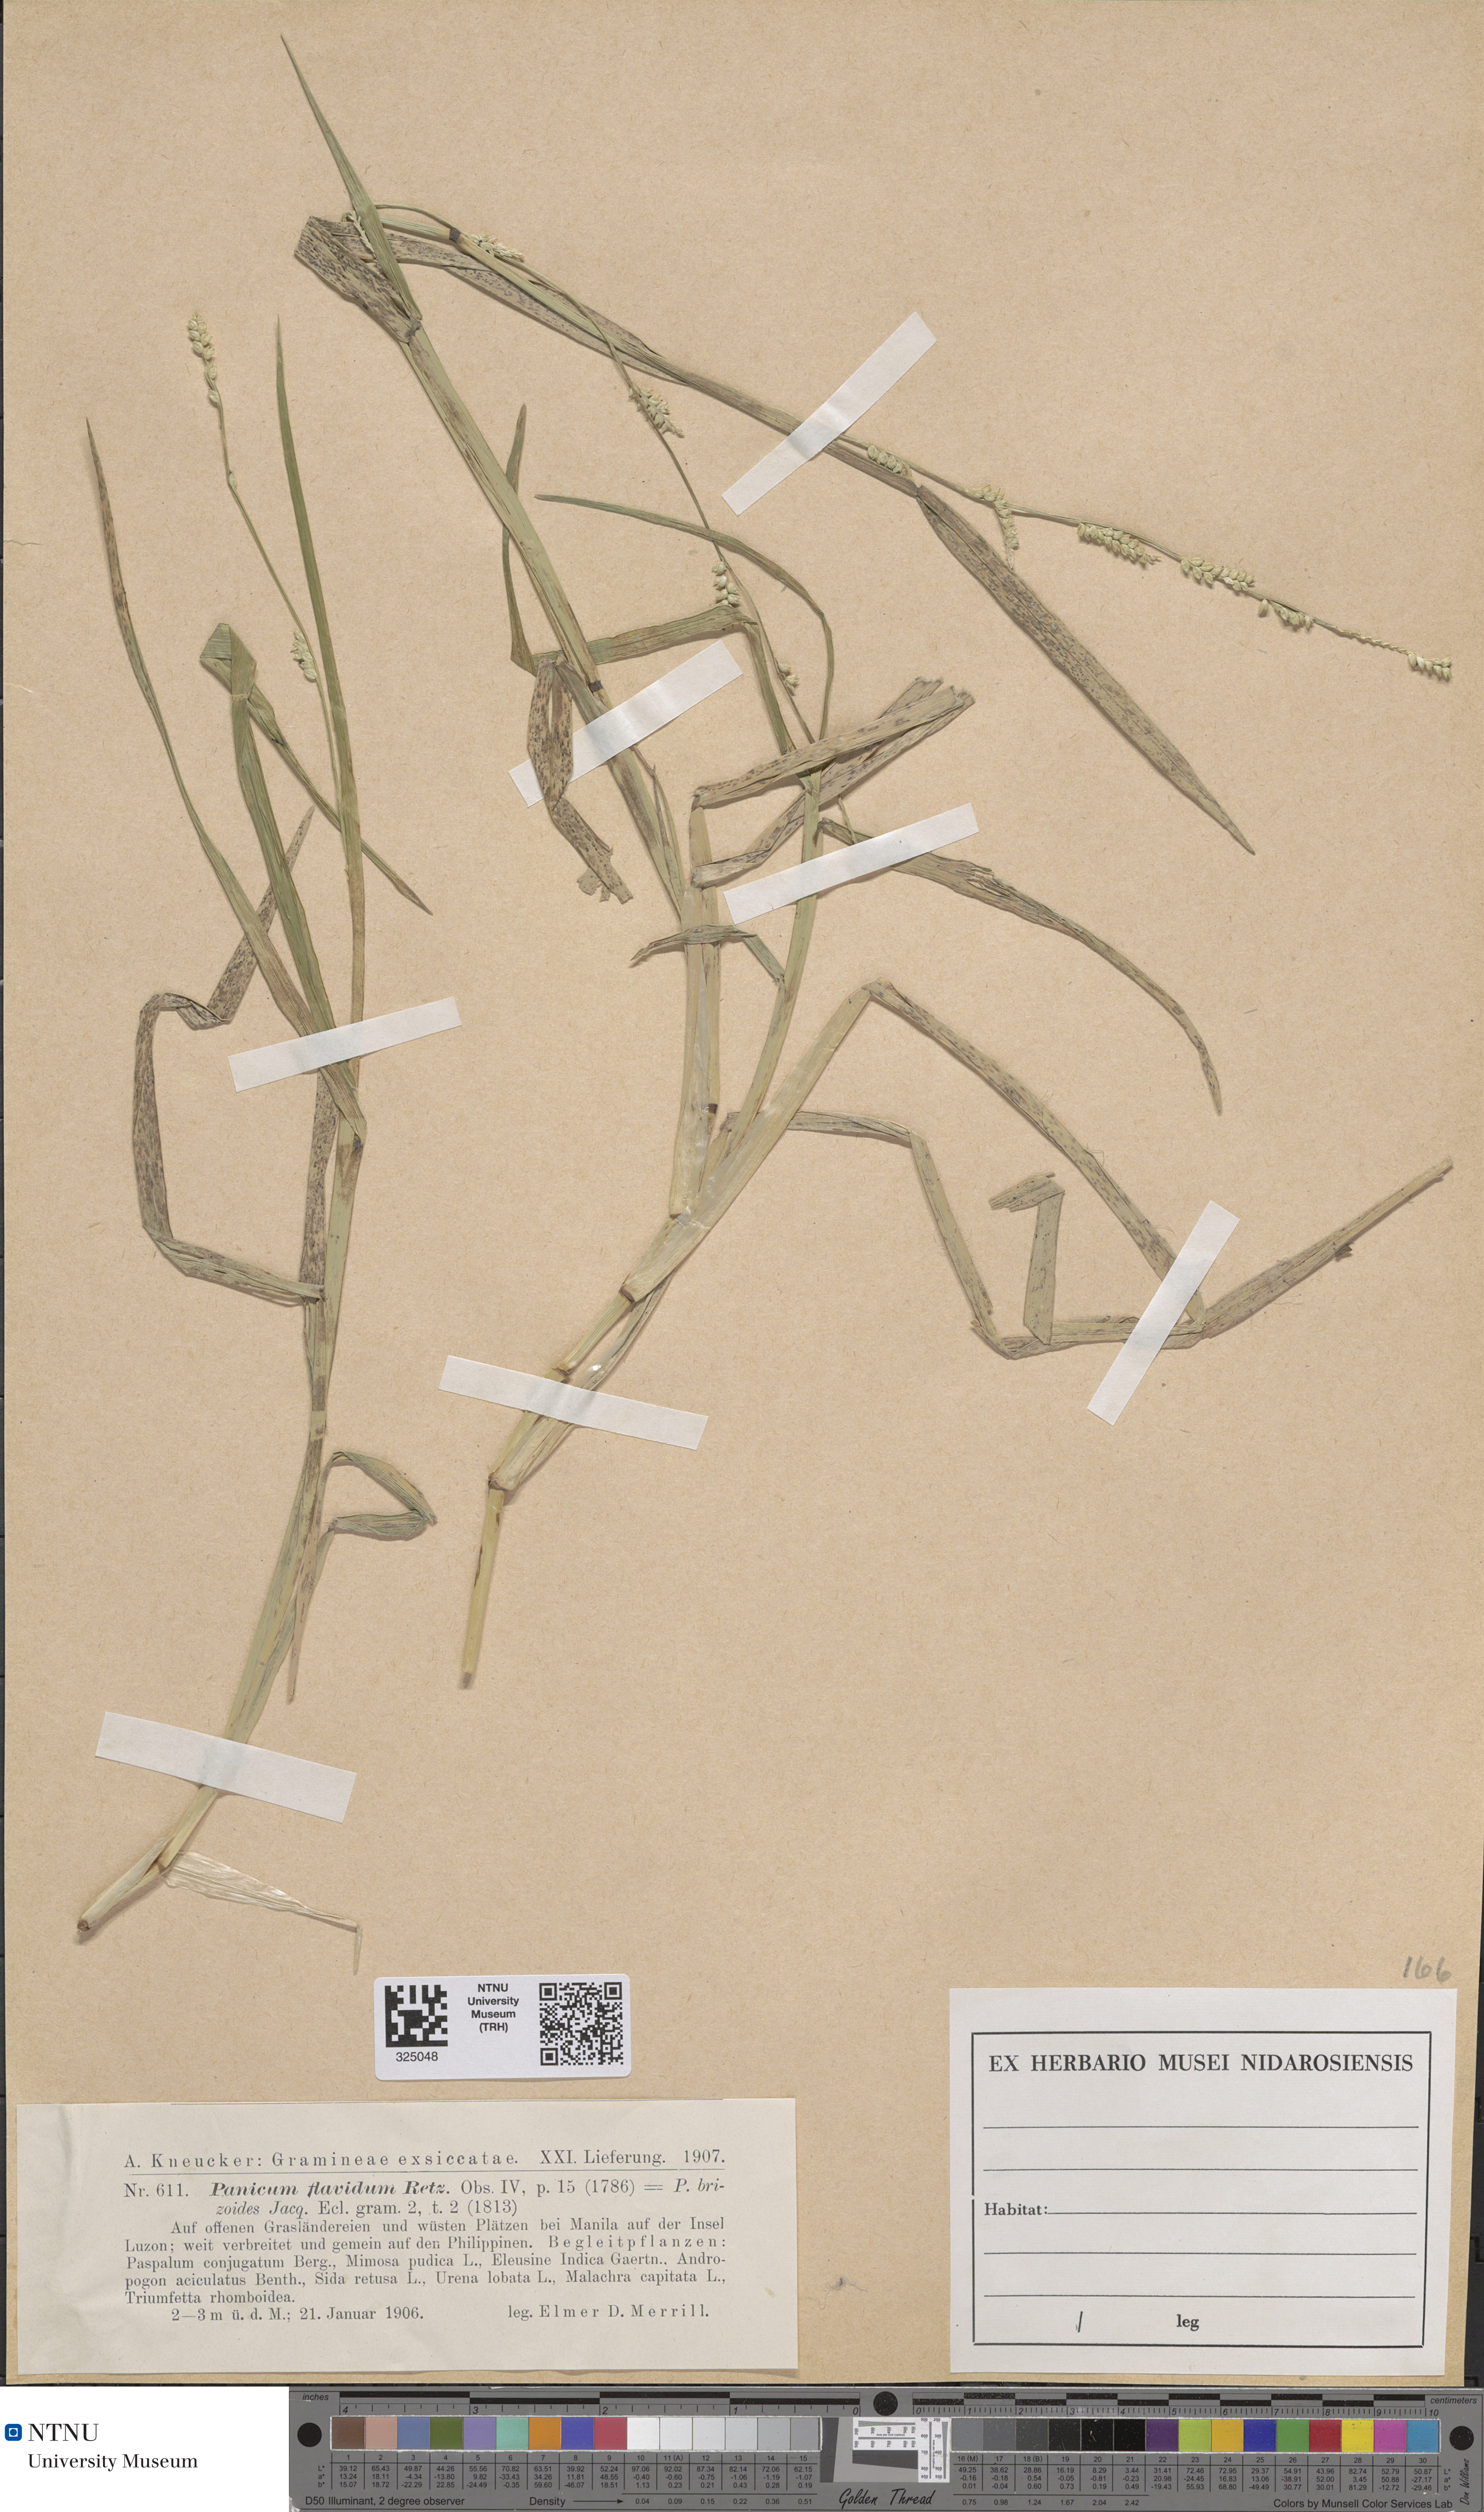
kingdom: Plantae
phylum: Tracheophyta
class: Liliopsida
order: Poales
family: Poaceae
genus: Setaria
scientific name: Setaria flavida
